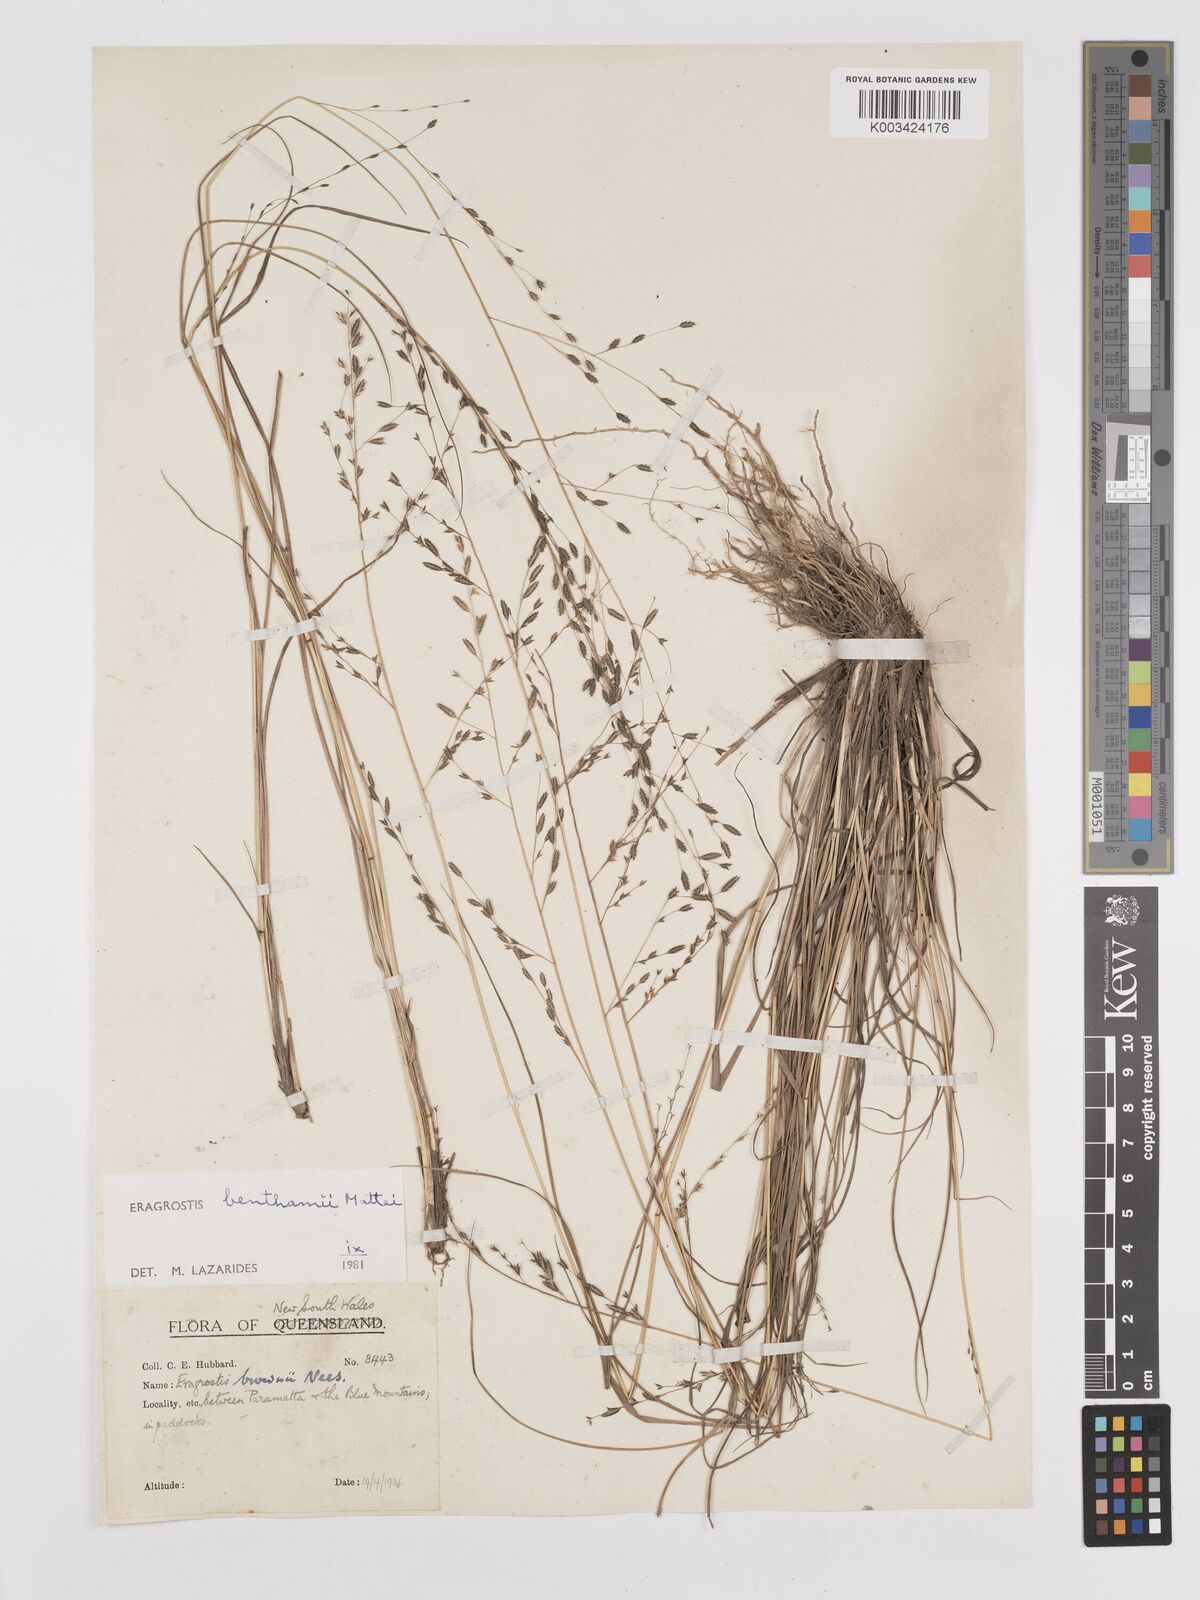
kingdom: Plantae
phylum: Tracheophyta
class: Liliopsida
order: Poales
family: Poaceae
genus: Eragrostis
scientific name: Eragrostis brownii
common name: Lovegrass
